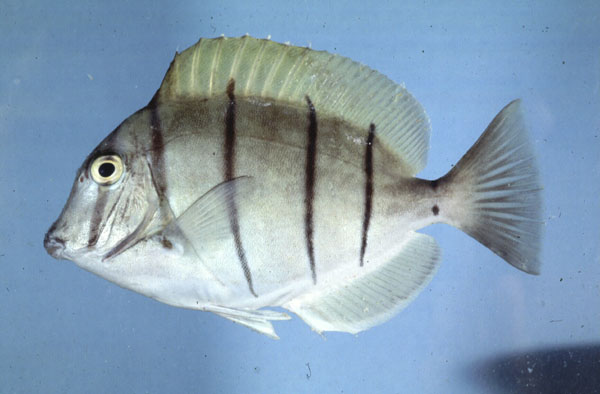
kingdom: Animalia
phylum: Chordata
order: Perciformes
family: Acanthuridae
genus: Acanthurus
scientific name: Acanthurus triostegus
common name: Convict surgeonfish
